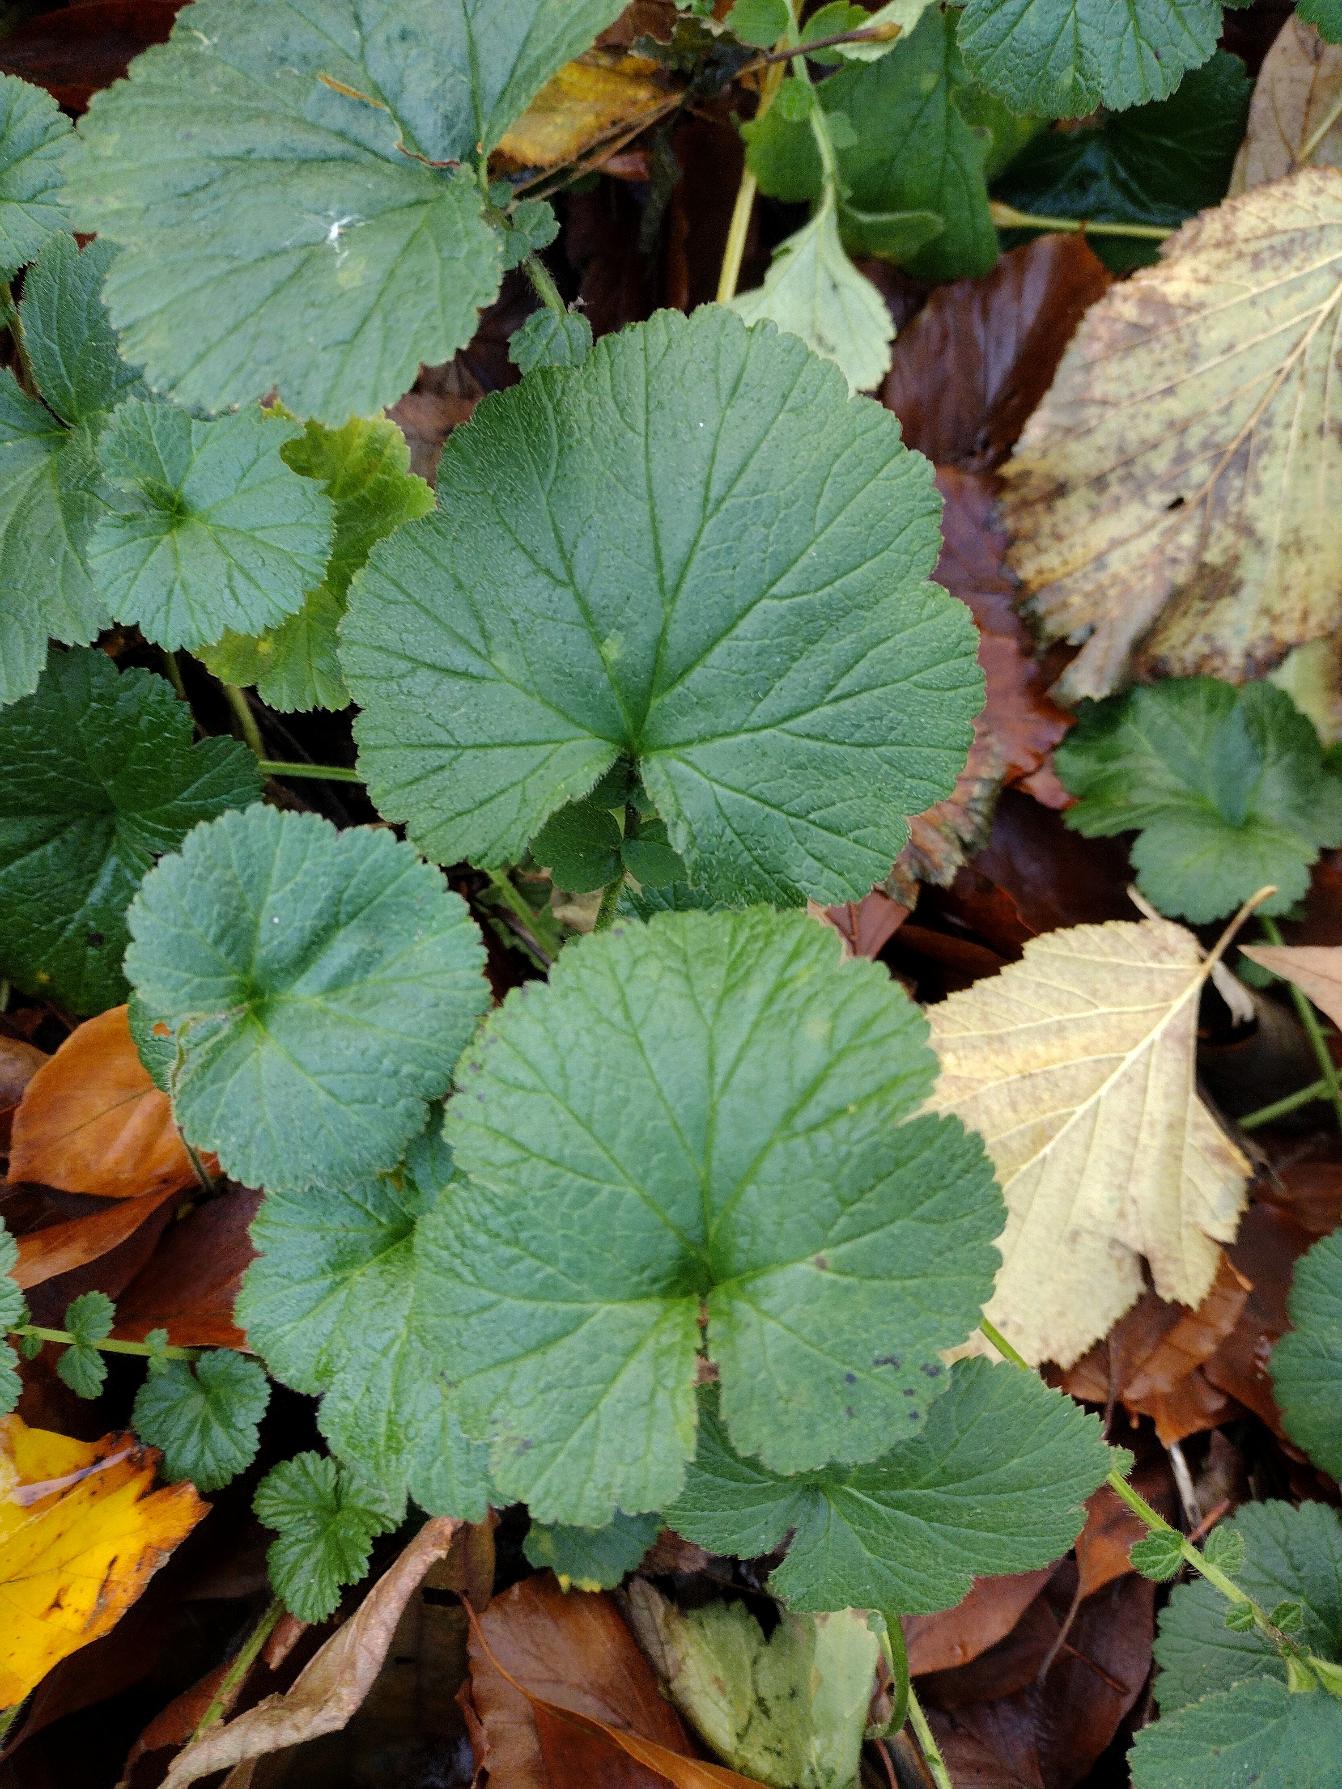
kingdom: Plantae
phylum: Tracheophyta
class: Magnoliopsida
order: Rosales
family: Rosaceae
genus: Geum
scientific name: Geum rivale
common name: Eng-nellikerod
